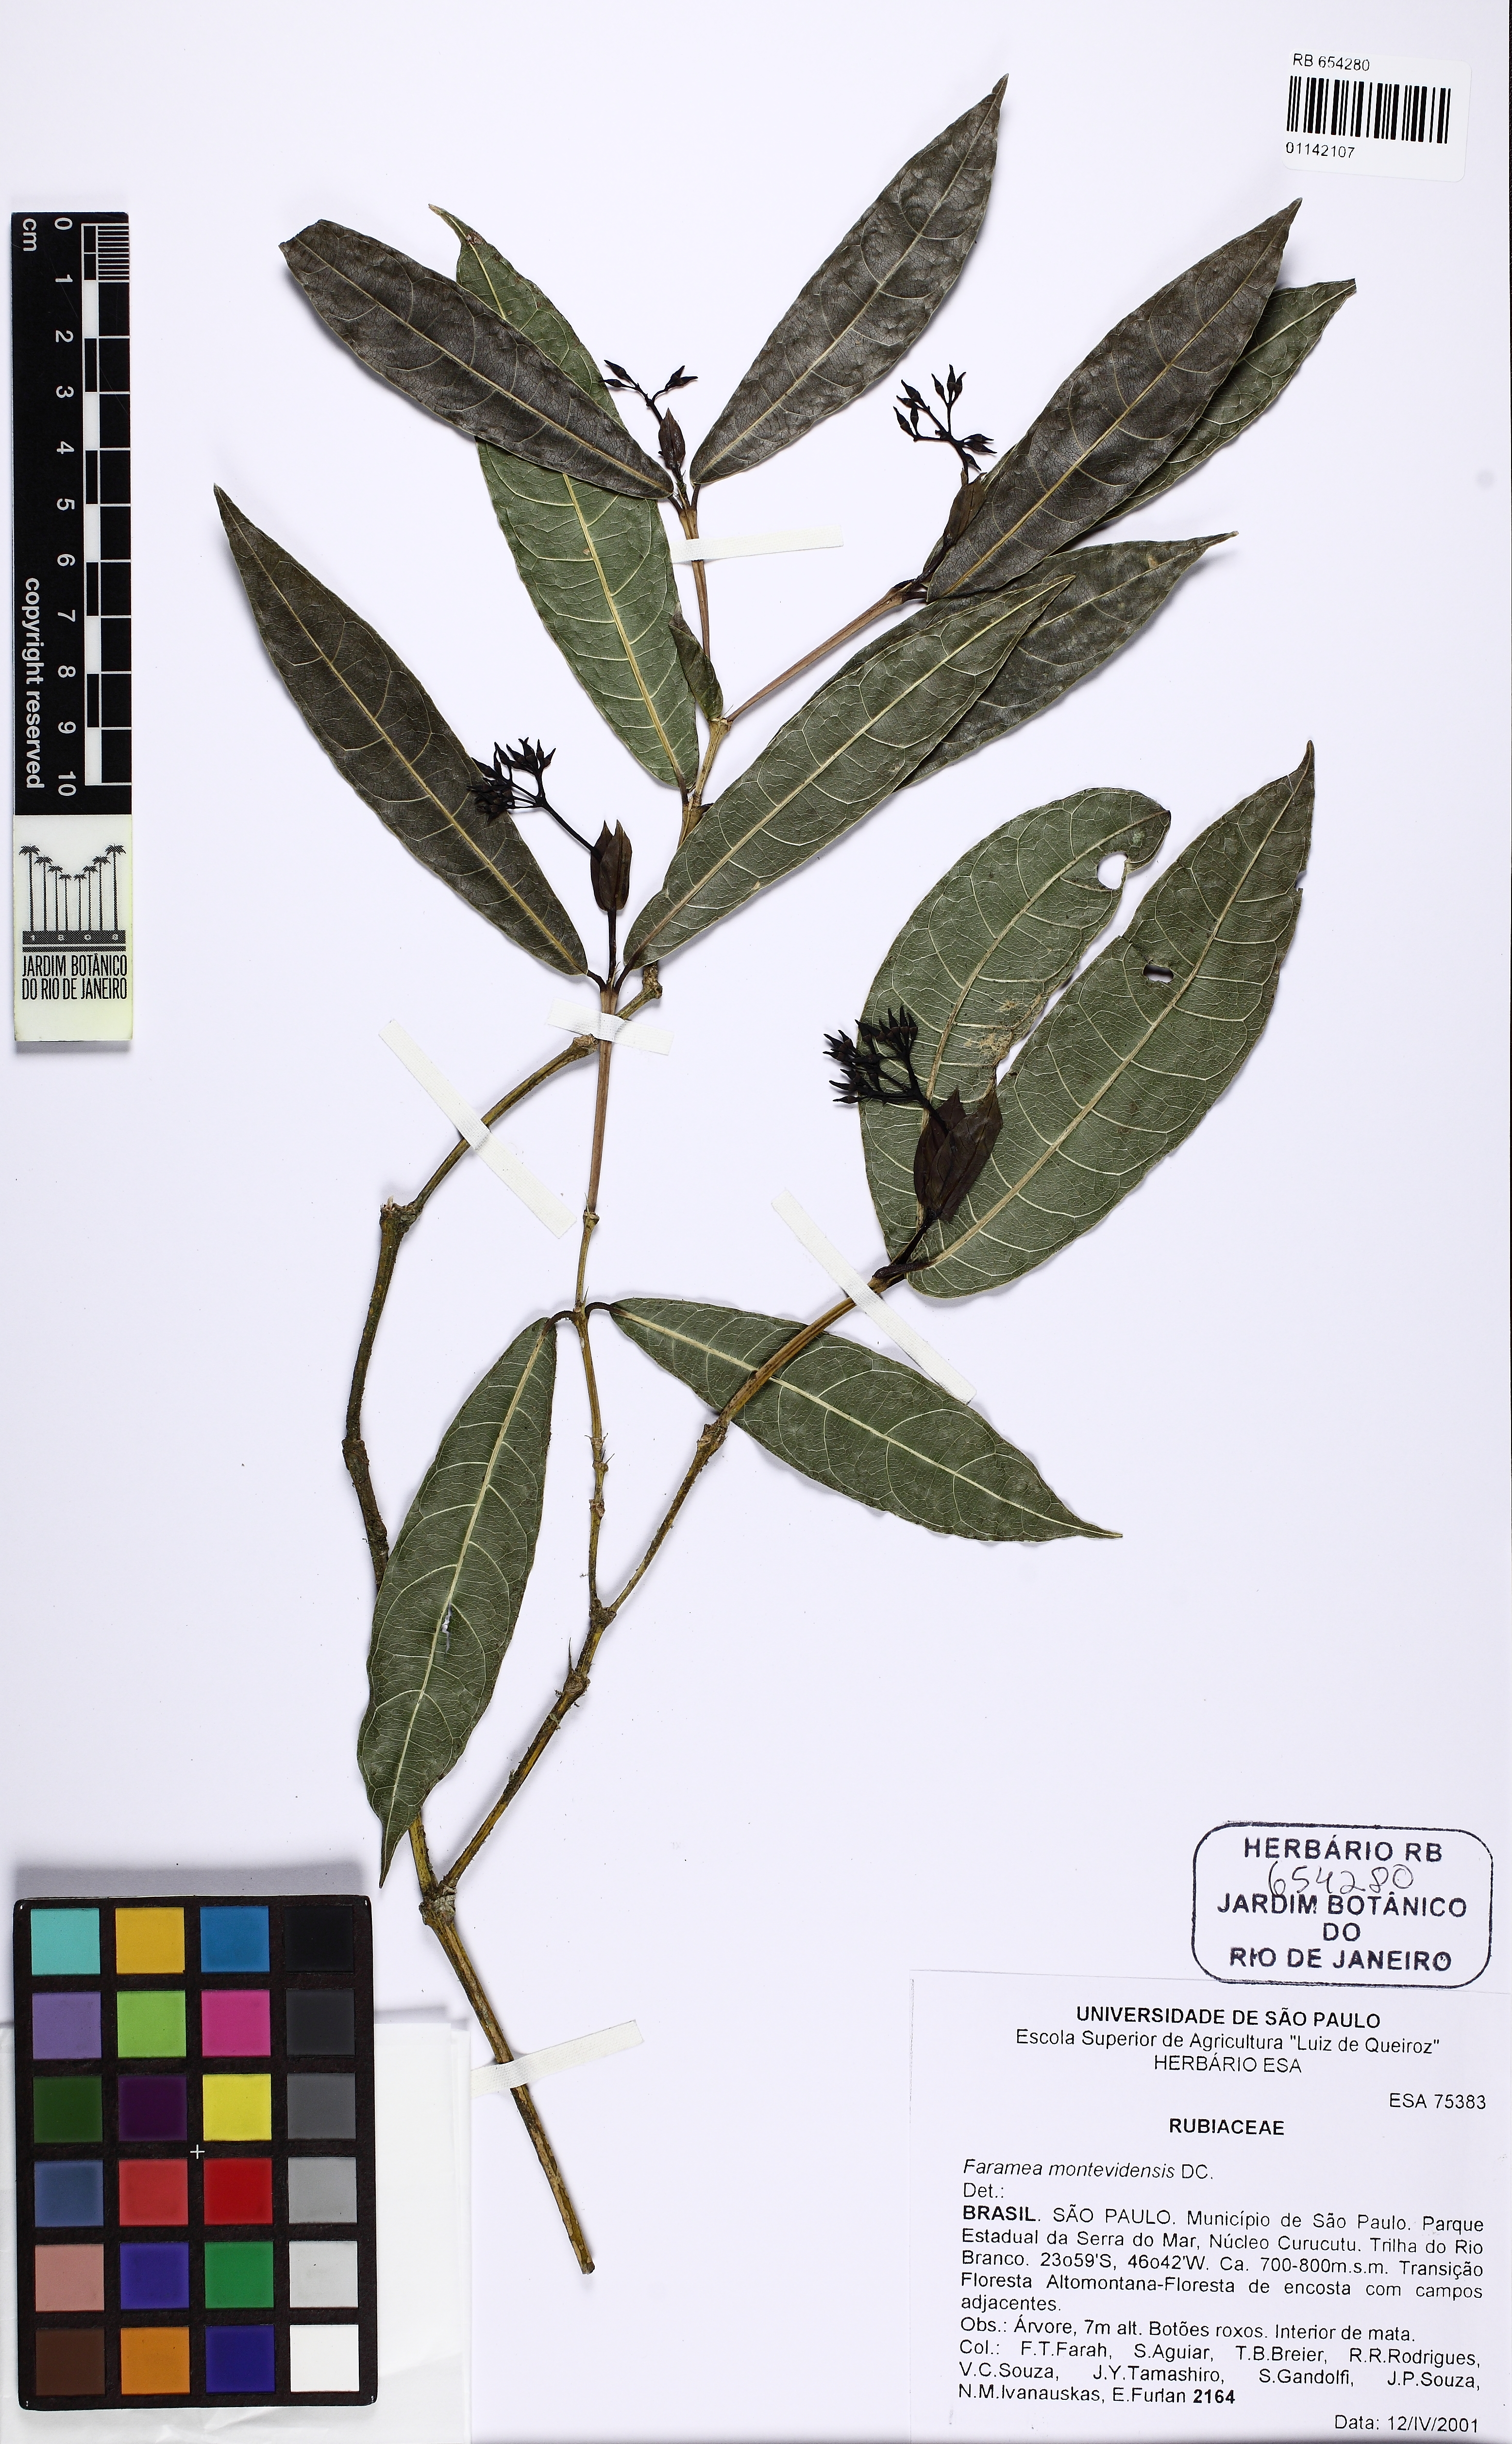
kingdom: Plantae
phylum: Tracheophyta
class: Magnoliopsida
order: Gentianales
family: Rubiaceae
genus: Faramea
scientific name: Faramea montevidensis
